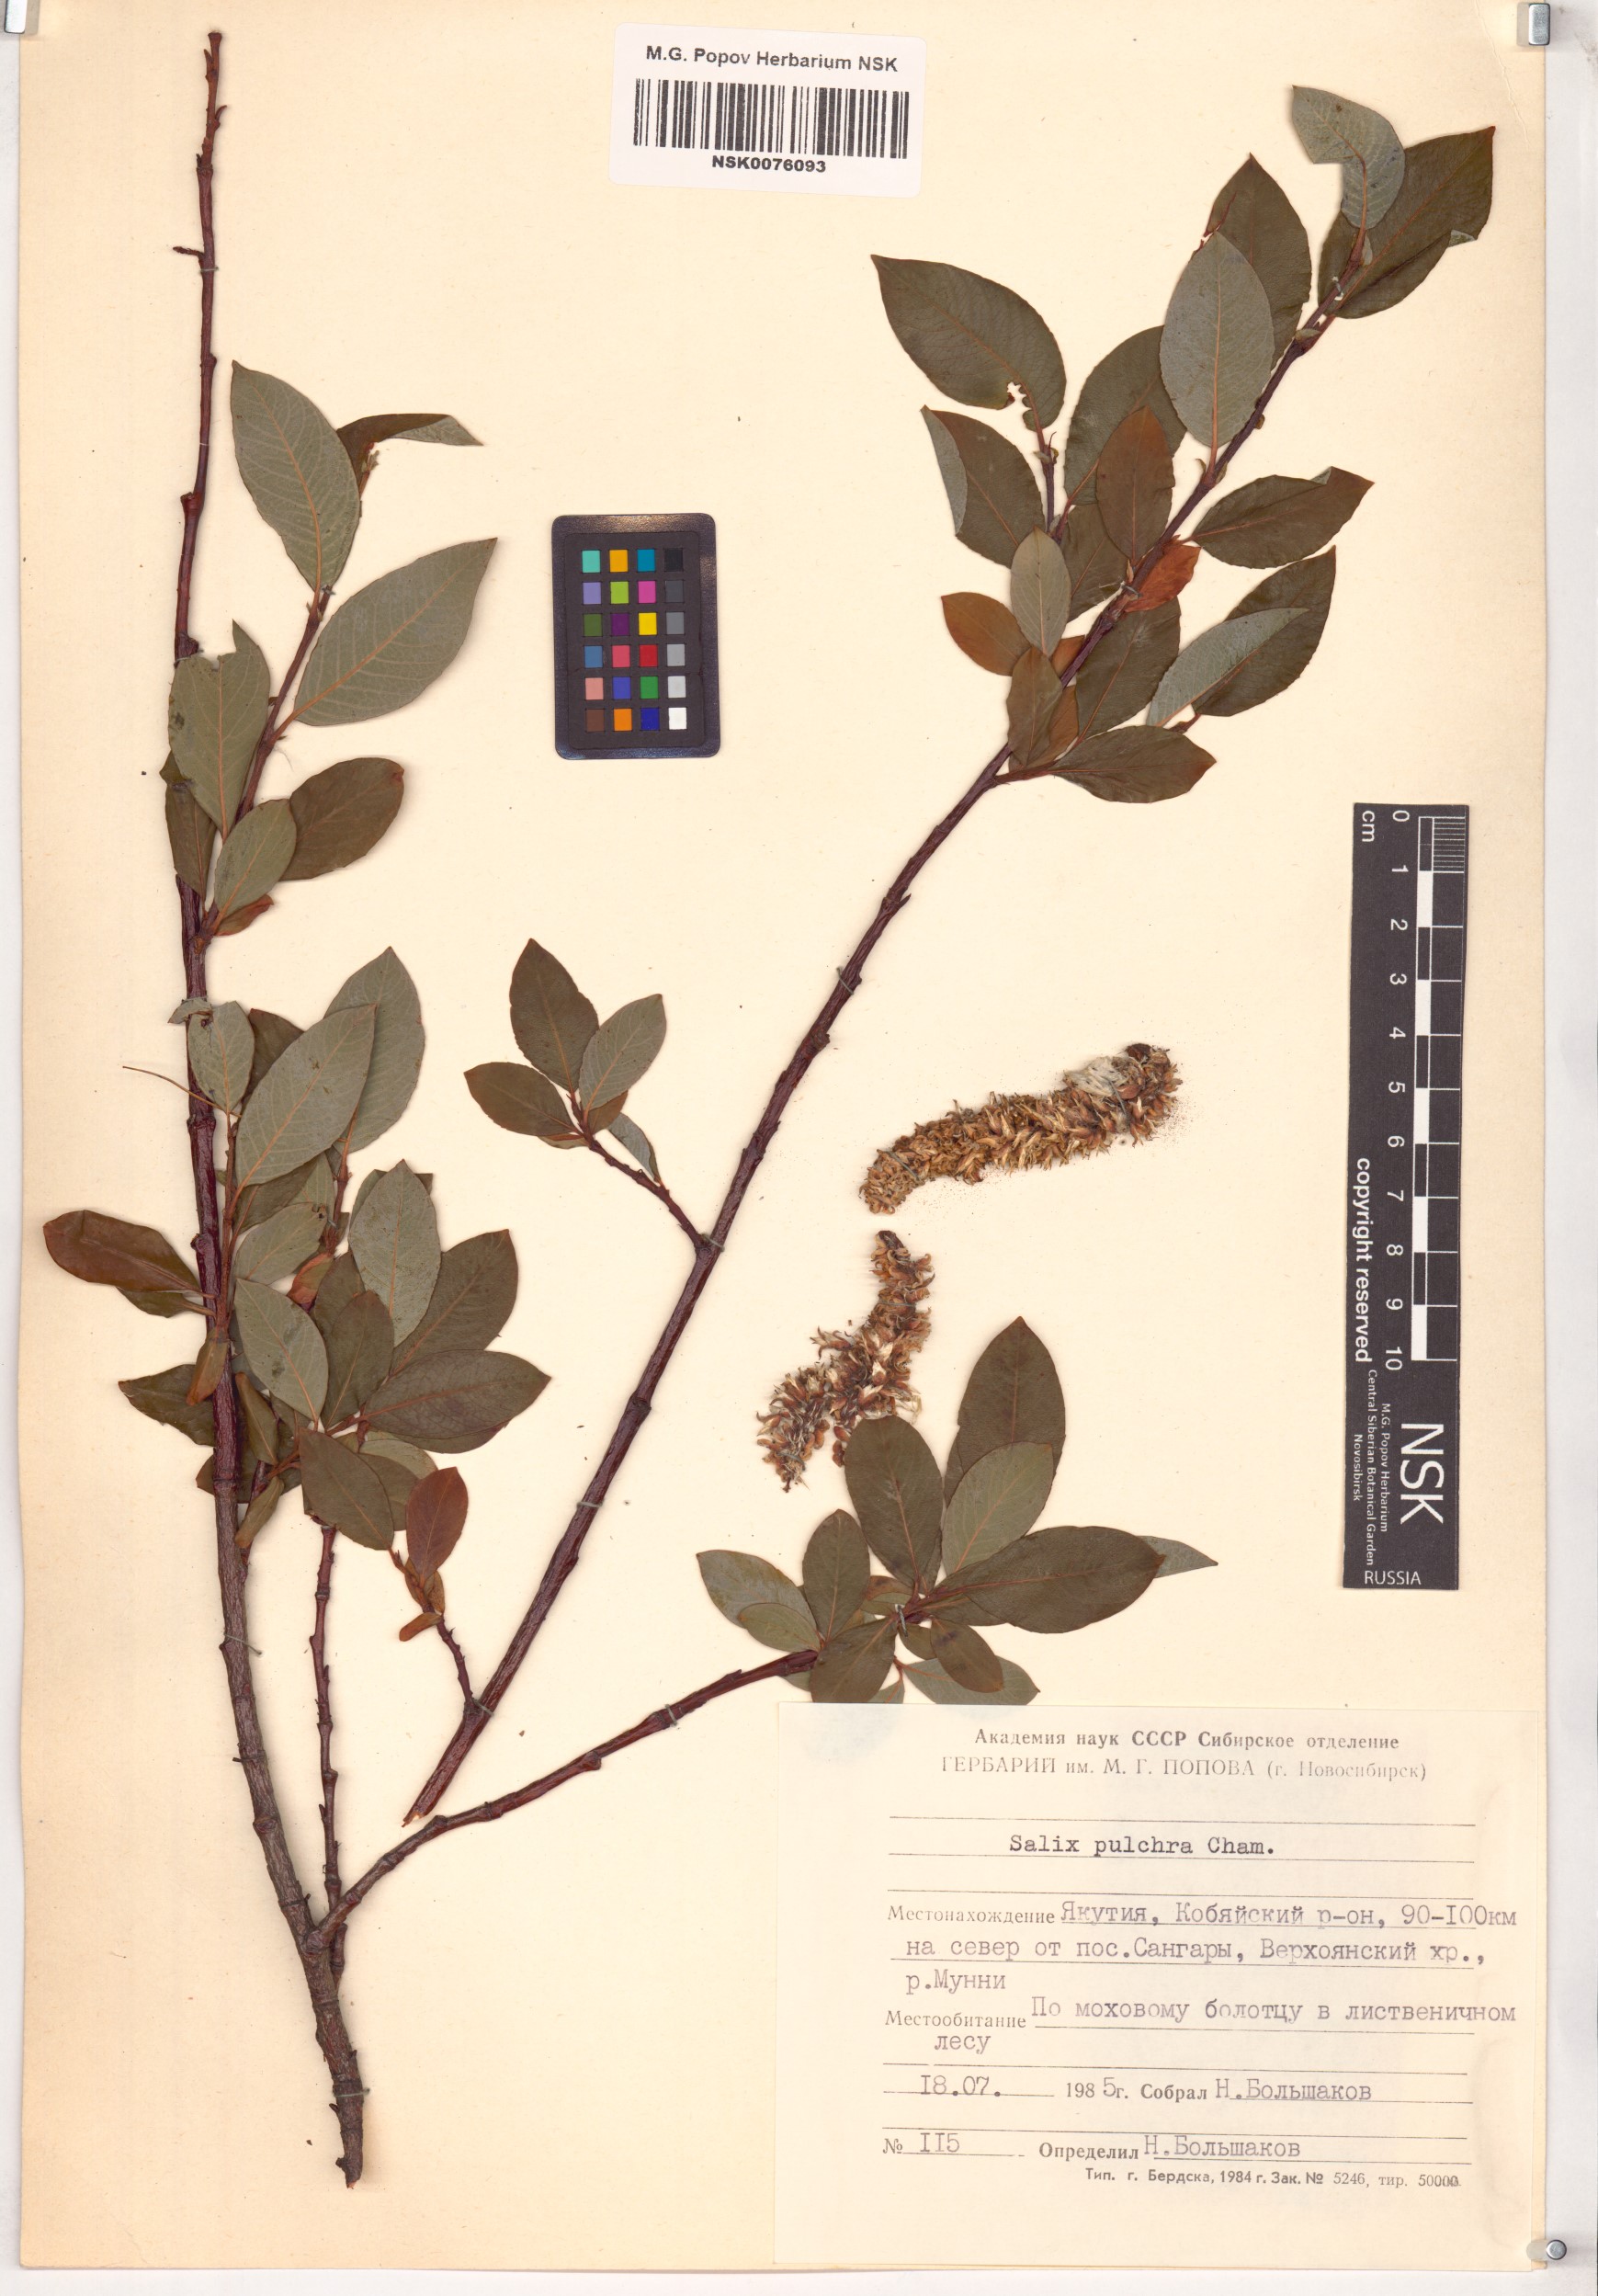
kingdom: Plantae
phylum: Tracheophyta
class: Magnoliopsida
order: Malpighiales
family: Salicaceae
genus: Salix
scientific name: Salix pulchra
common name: Diamond-leaved willow
